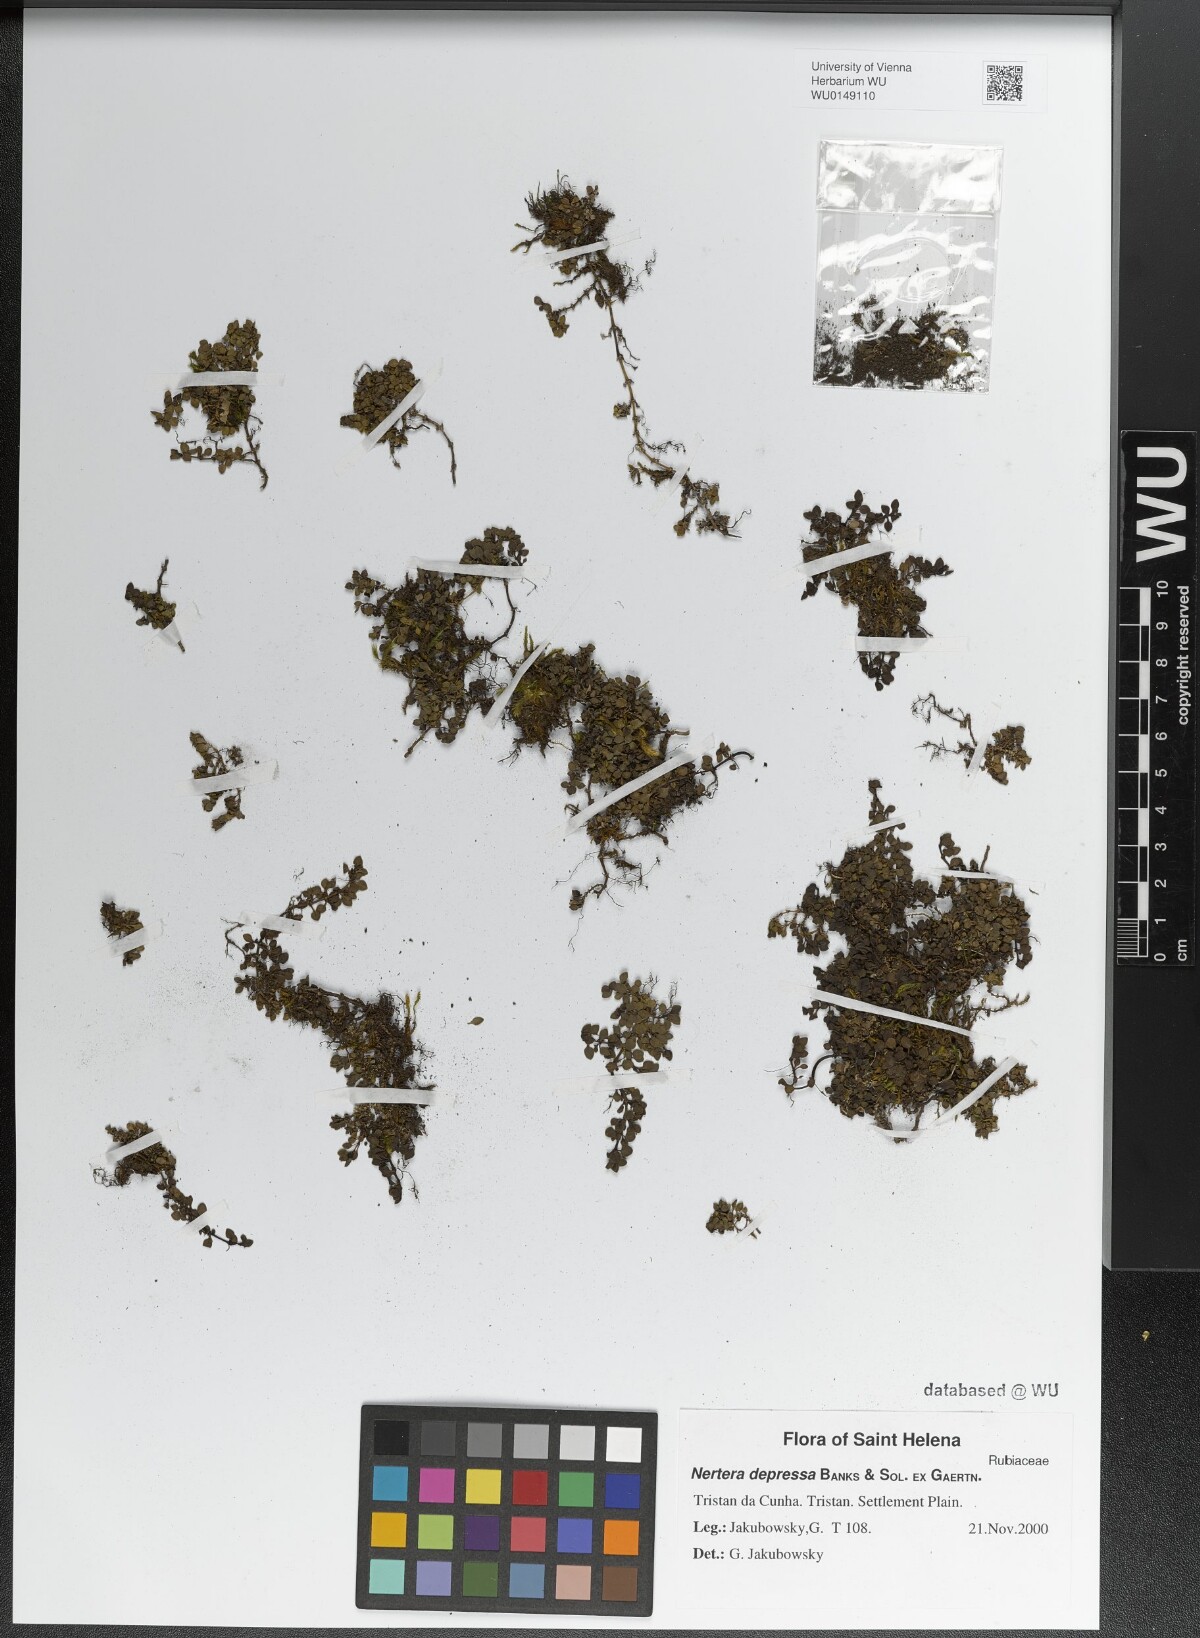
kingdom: Plantae
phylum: Tracheophyta
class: Magnoliopsida
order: Gentianales
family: Rubiaceae
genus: Nertera
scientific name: Nertera granadensis
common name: Beadplant
